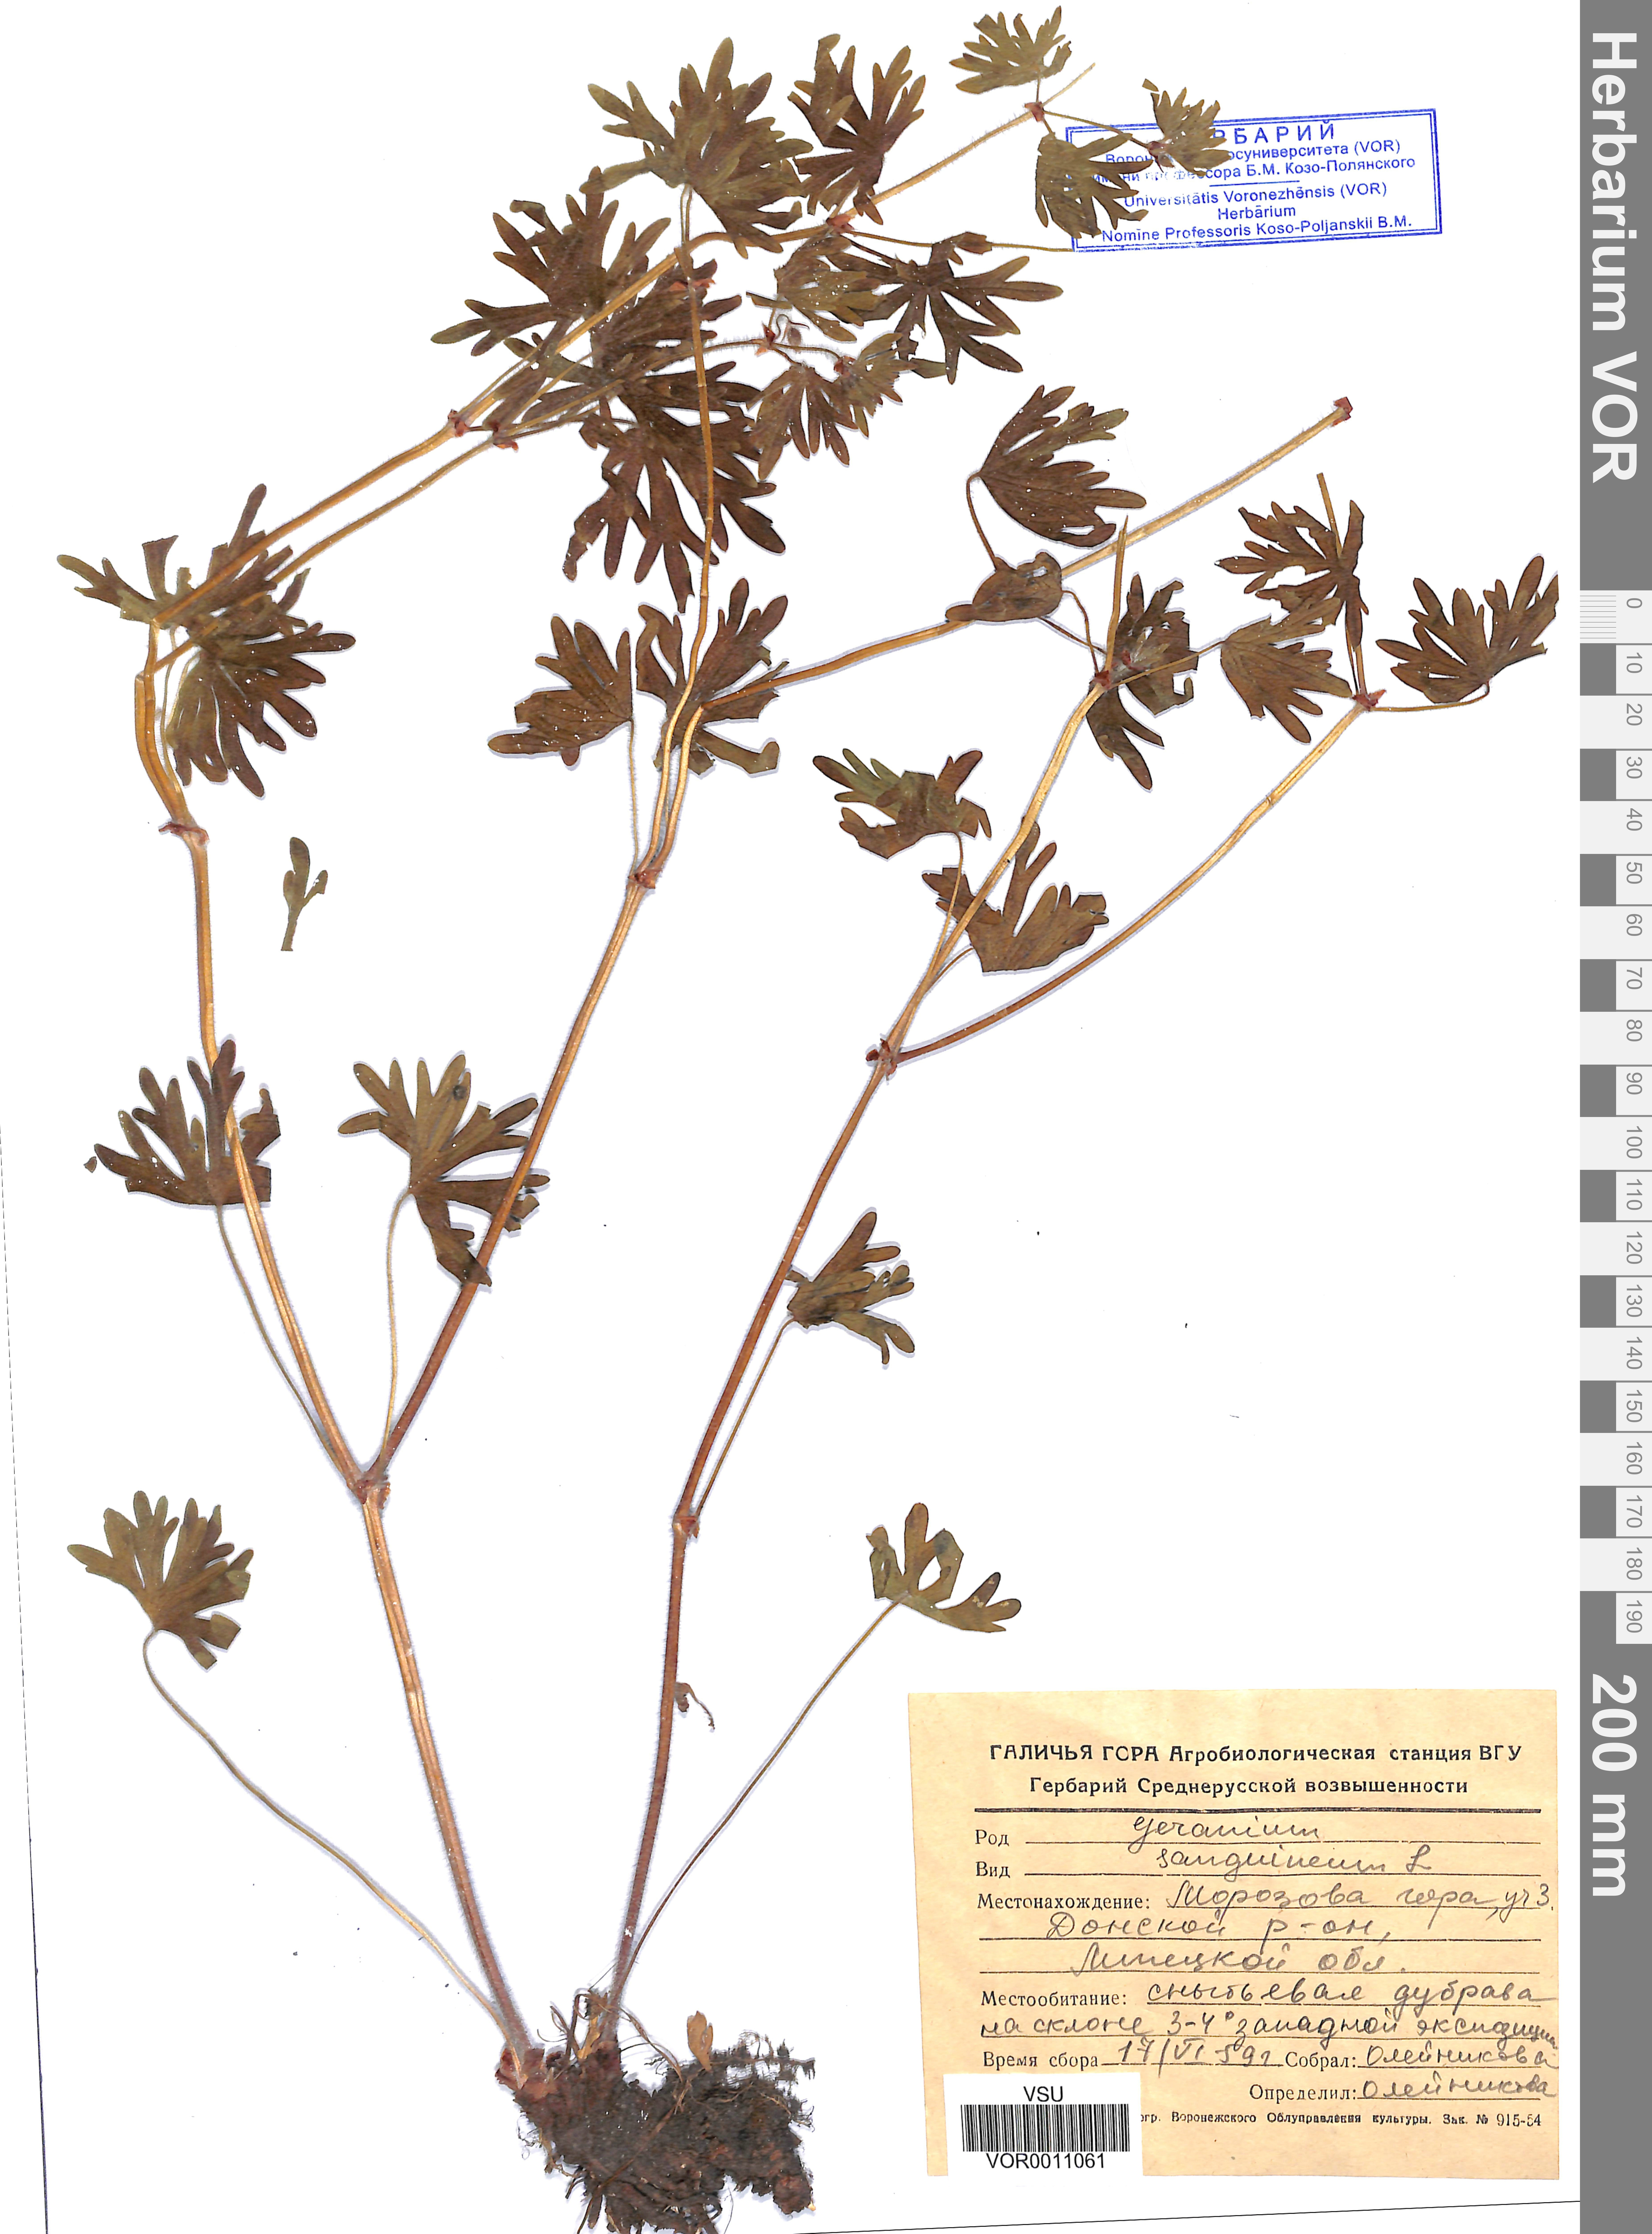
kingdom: Plantae
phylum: Tracheophyta
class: Magnoliopsida
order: Geraniales
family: Geraniaceae
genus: Geranium
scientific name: Geranium sanguineum
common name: Bloody crane's-bill
